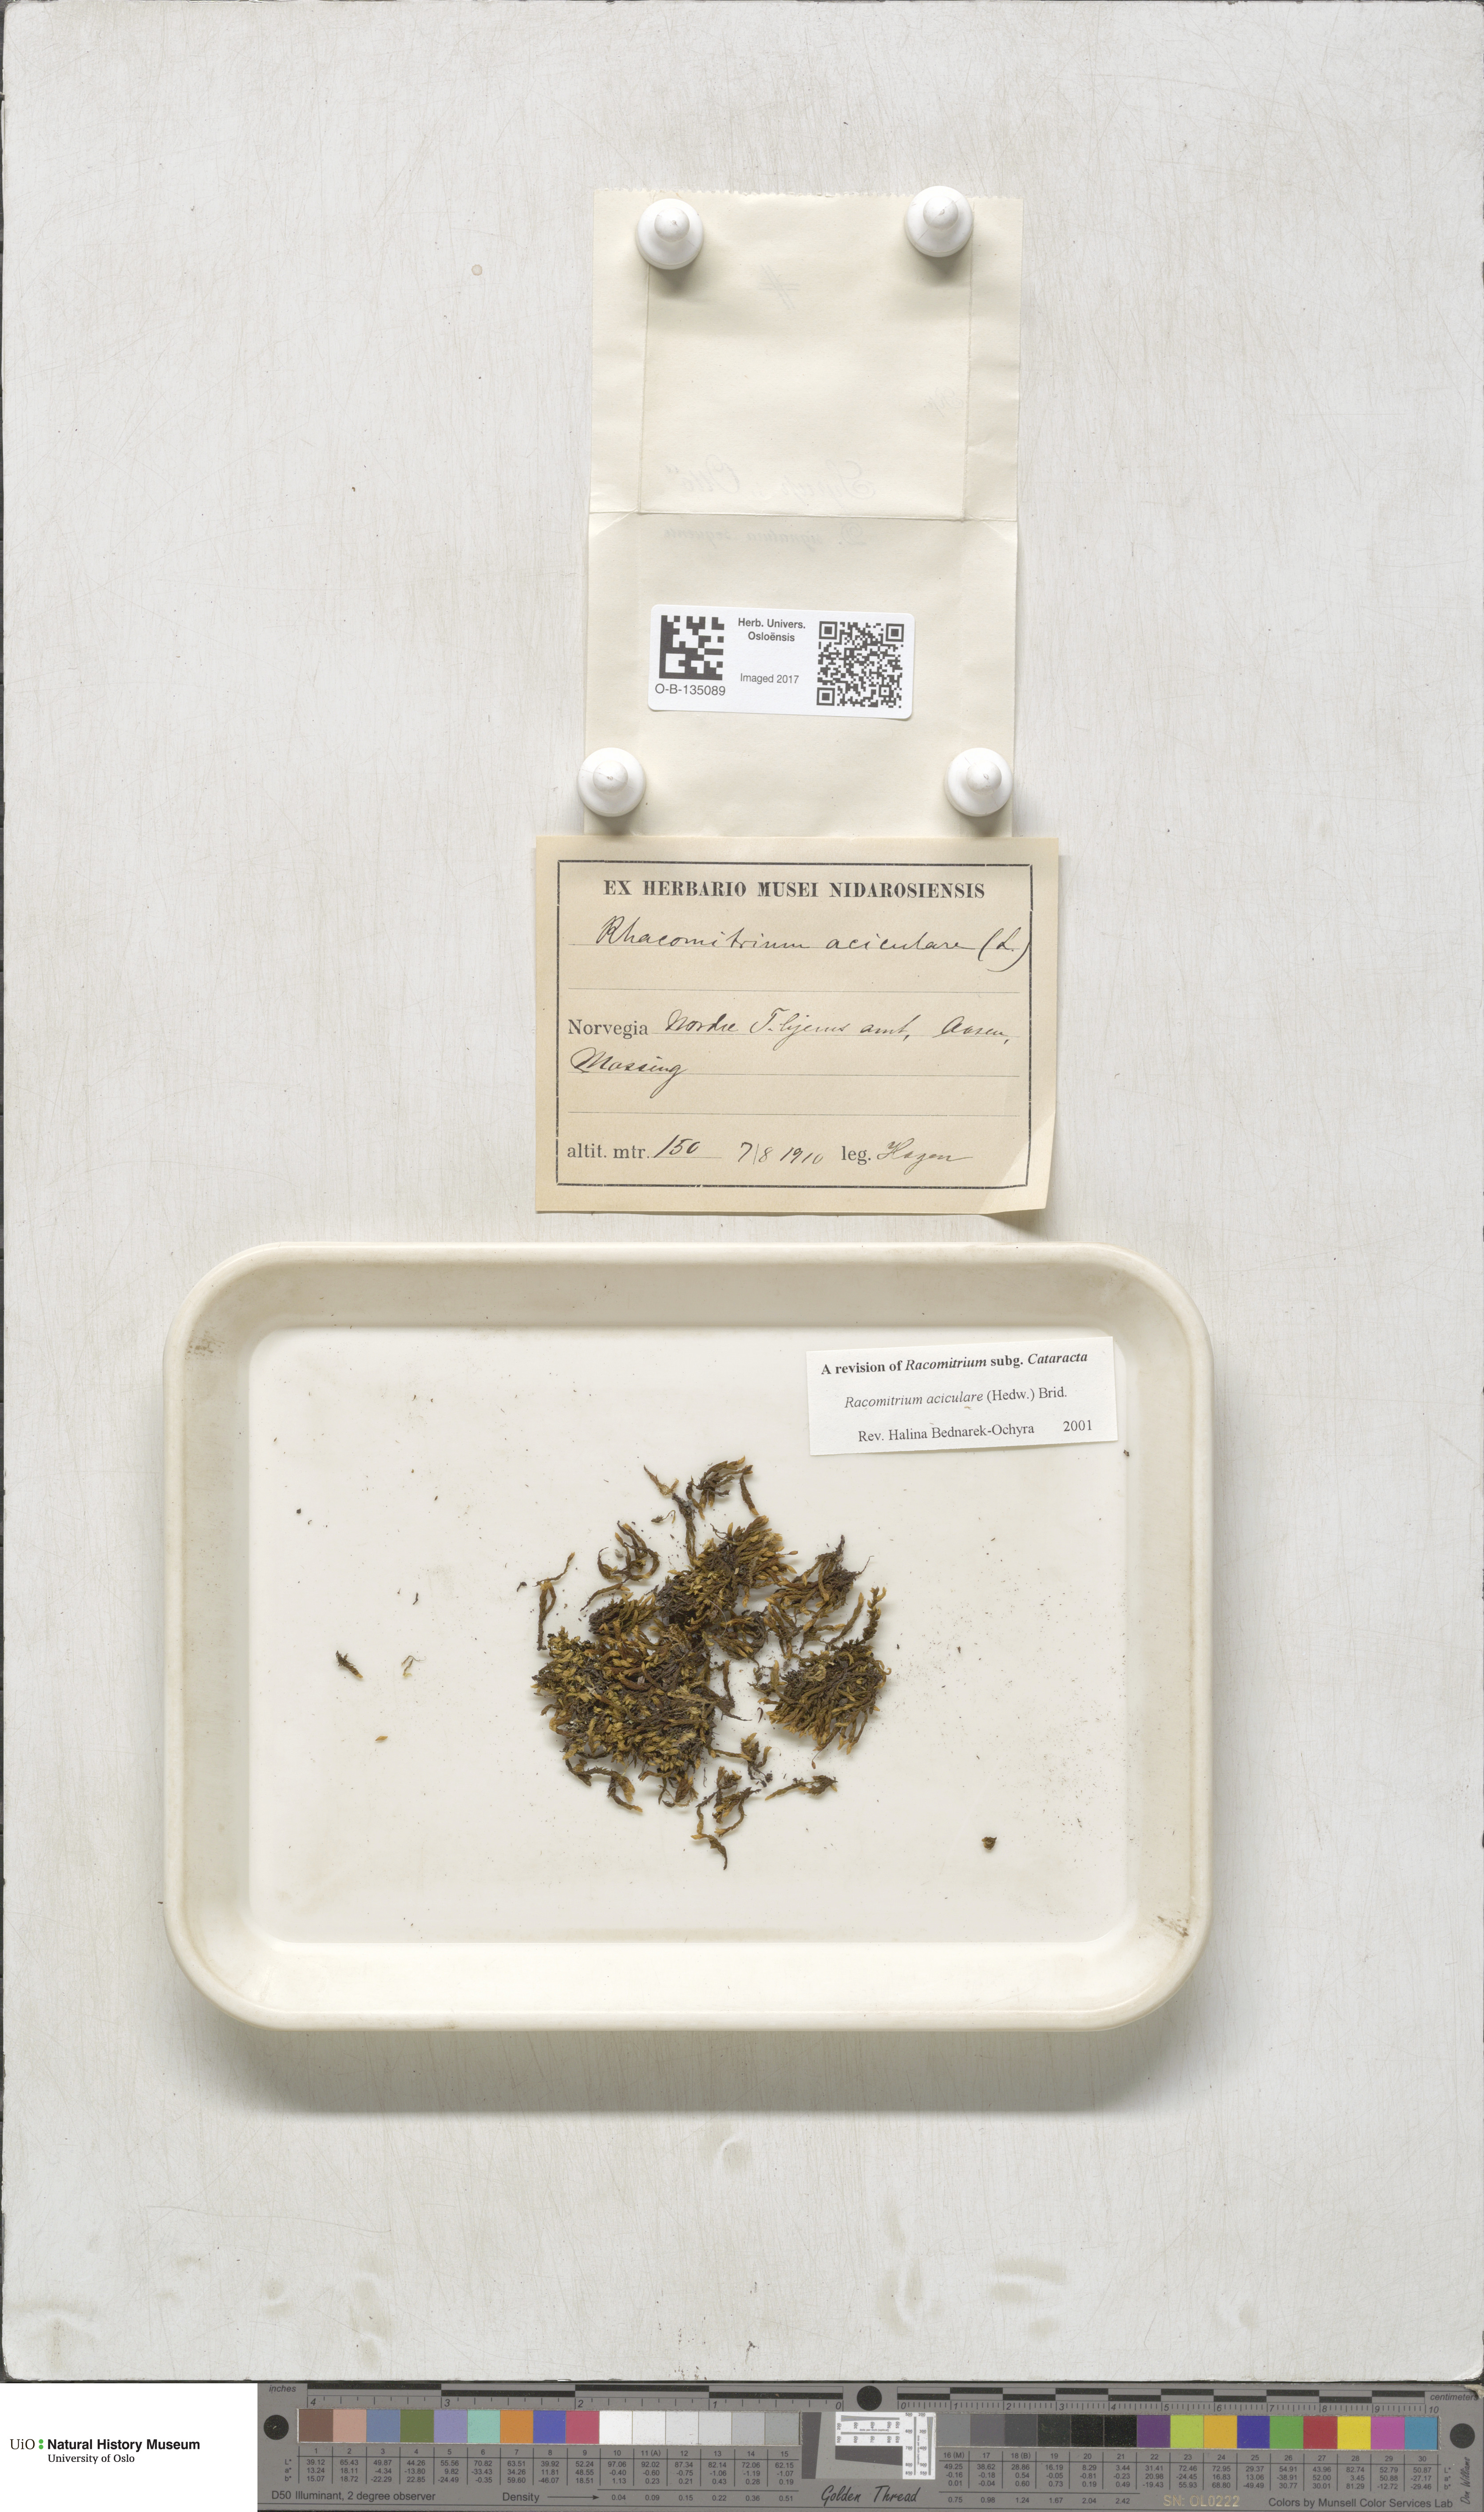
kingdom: Plantae
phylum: Bryophyta
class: Bryopsida
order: Grimmiales
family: Grimmiaceae
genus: Codriophorus
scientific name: Codriophorus acicularis
